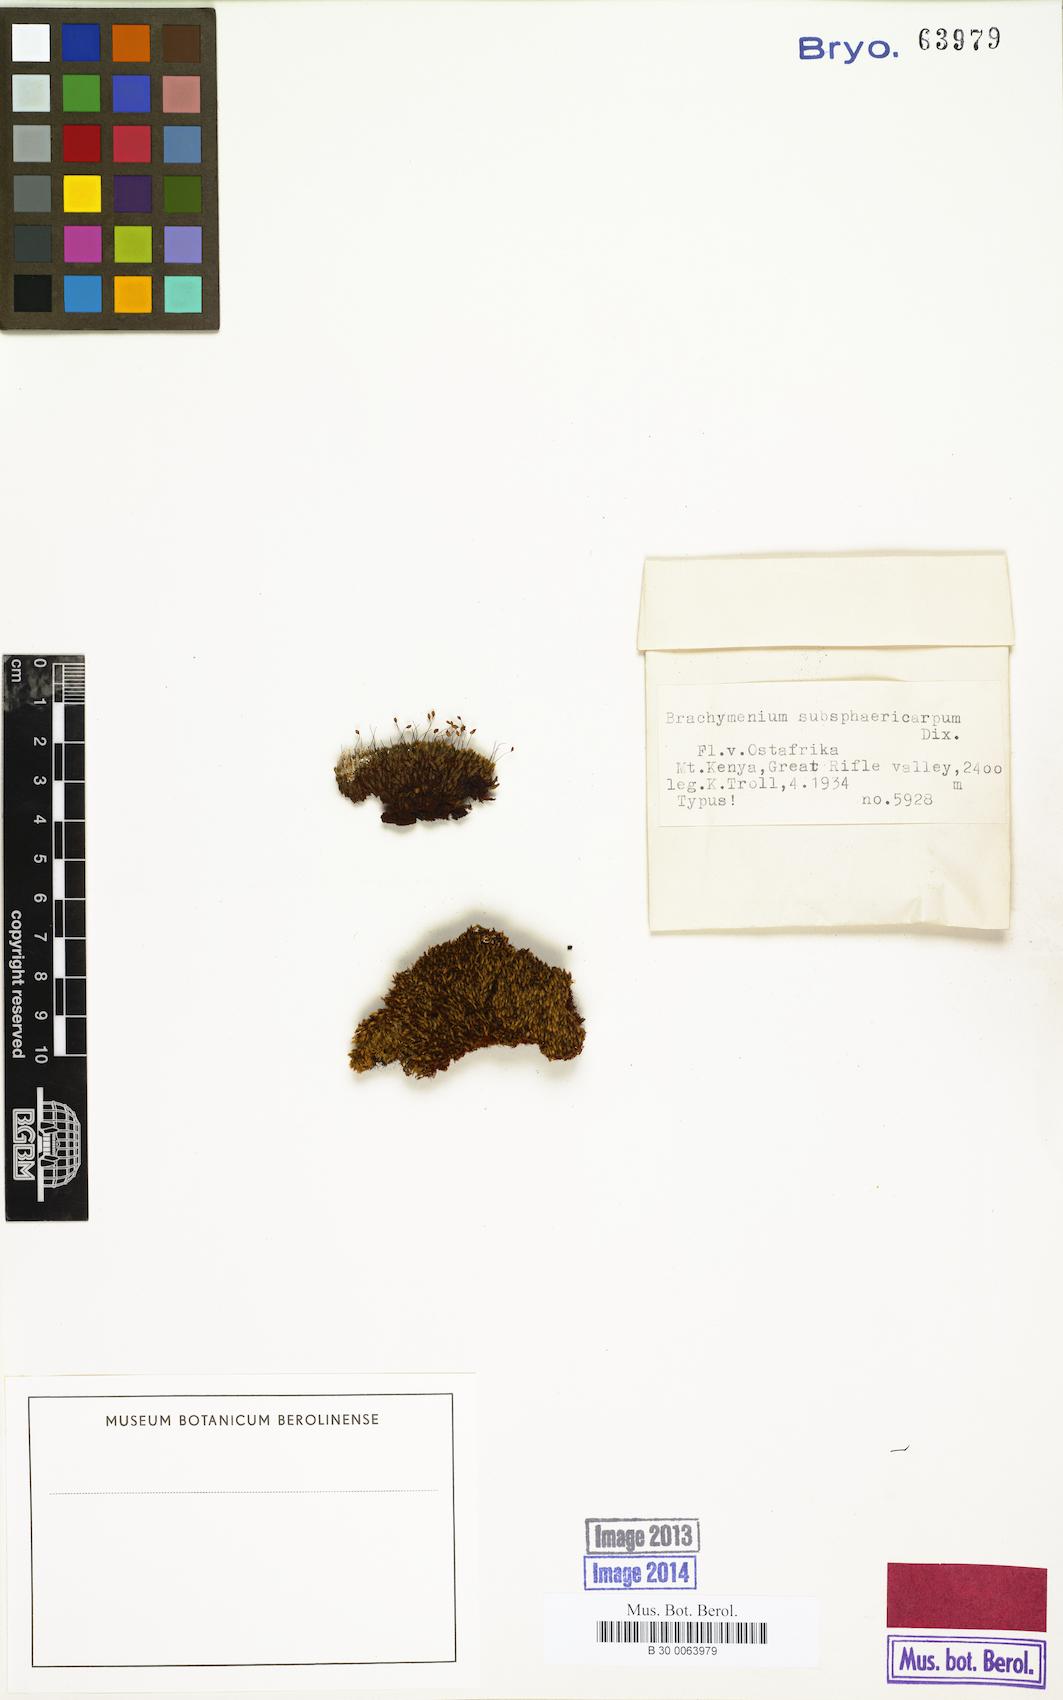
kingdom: Plantae
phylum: Bryophyta
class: Bryopsida
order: Bryales
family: Bryaceae
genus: Brachymenium
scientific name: Brachymenium
